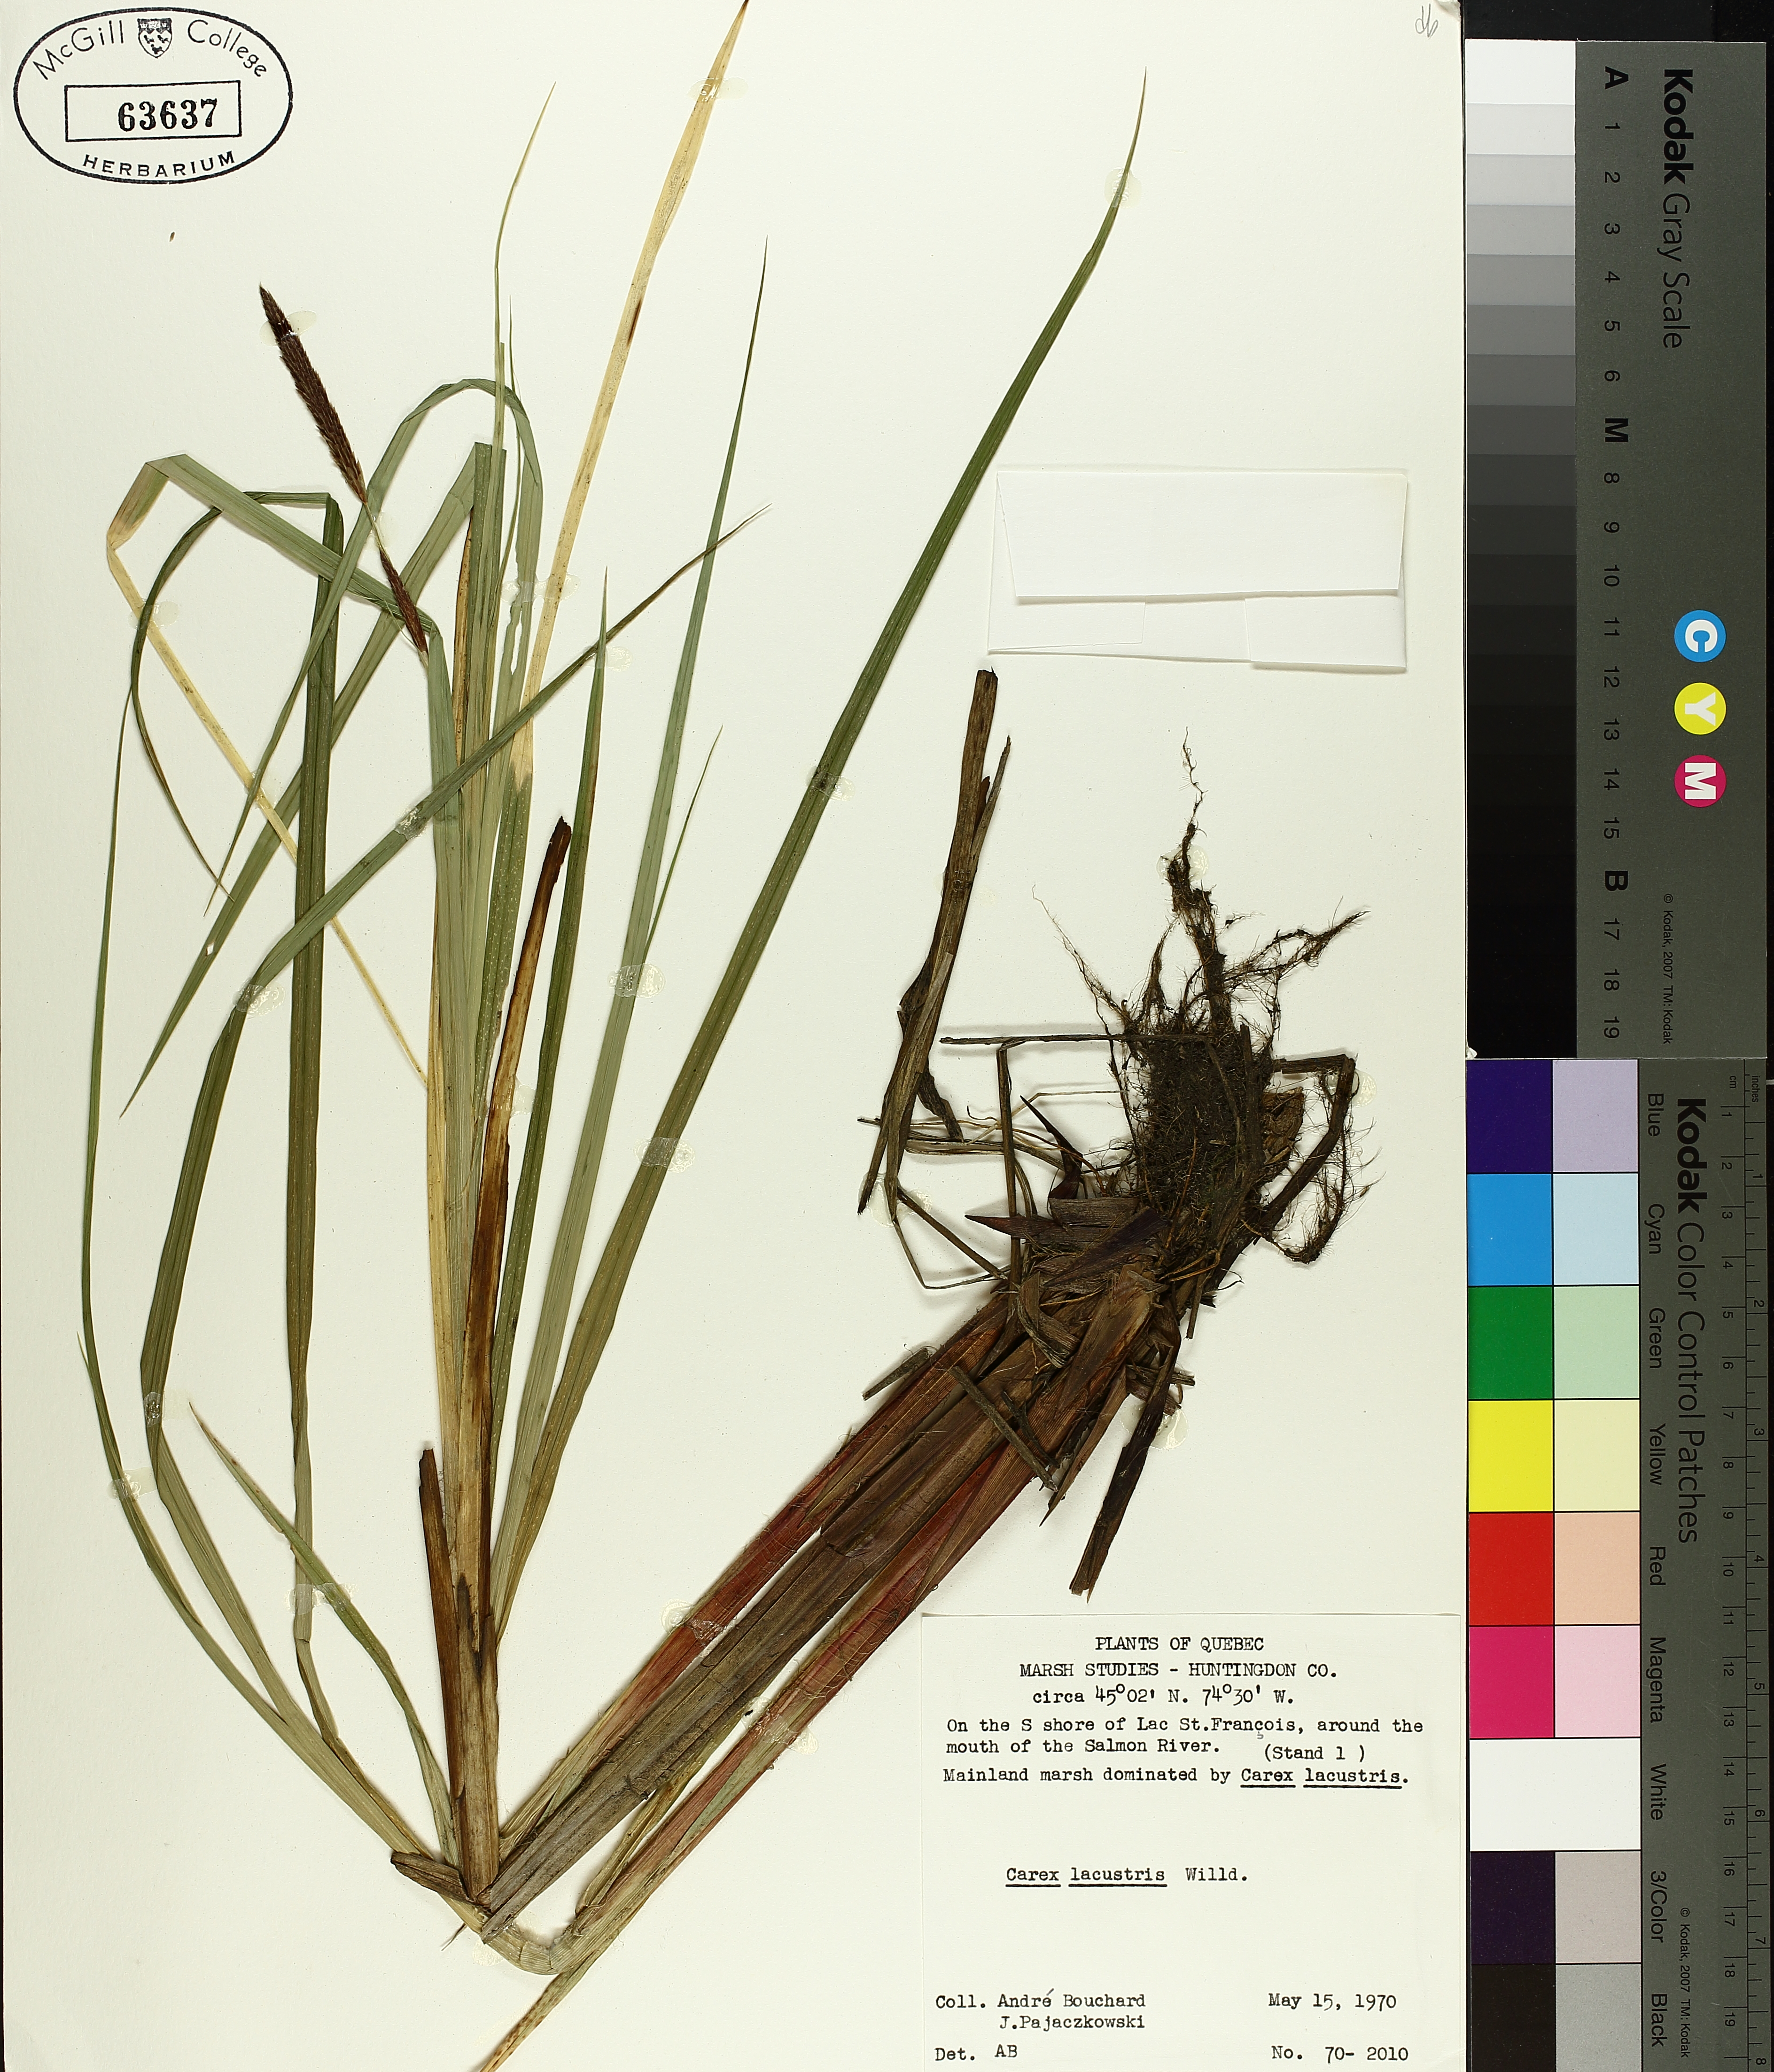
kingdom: Plantae
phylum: Tracheophyta
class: Liliopsida
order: Poales
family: Cyperaceae
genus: Carex
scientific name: Carex lacustris
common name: Common lake sedge
